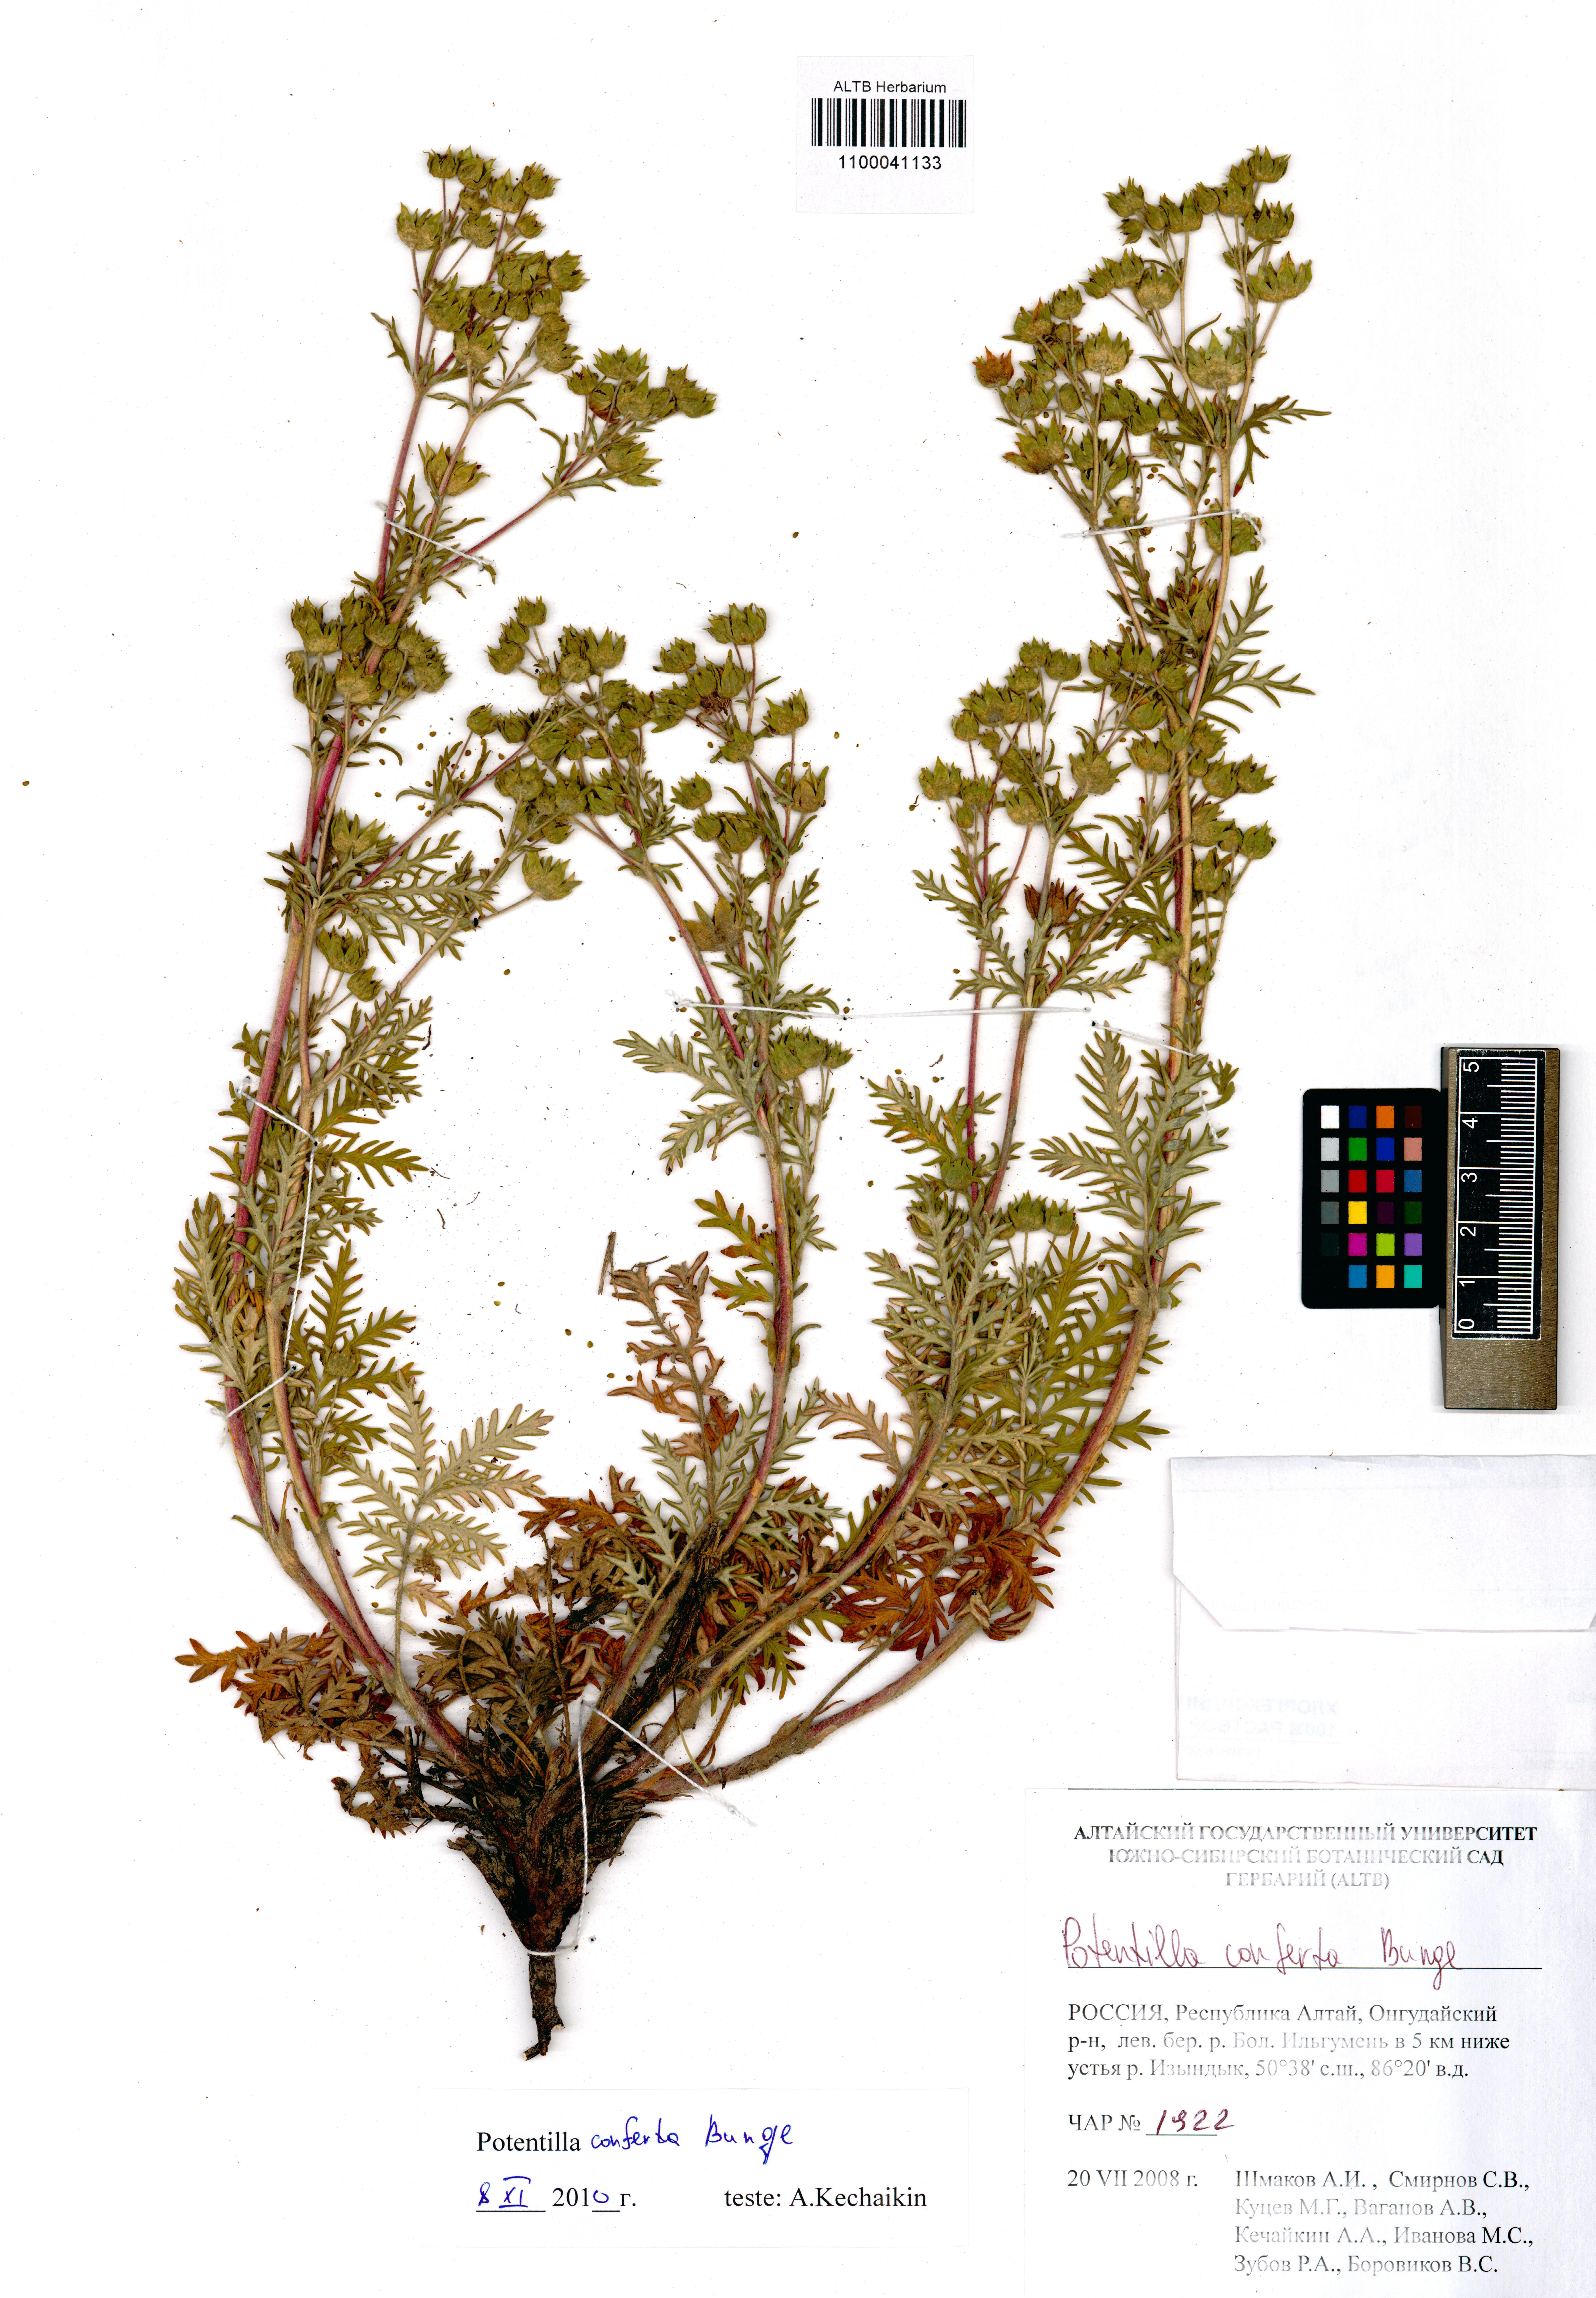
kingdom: Plantae
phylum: Tracheophyta
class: Magnoliopsida
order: Rosales
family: Rosaceae
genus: Potentilla
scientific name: Potentilla conferta
